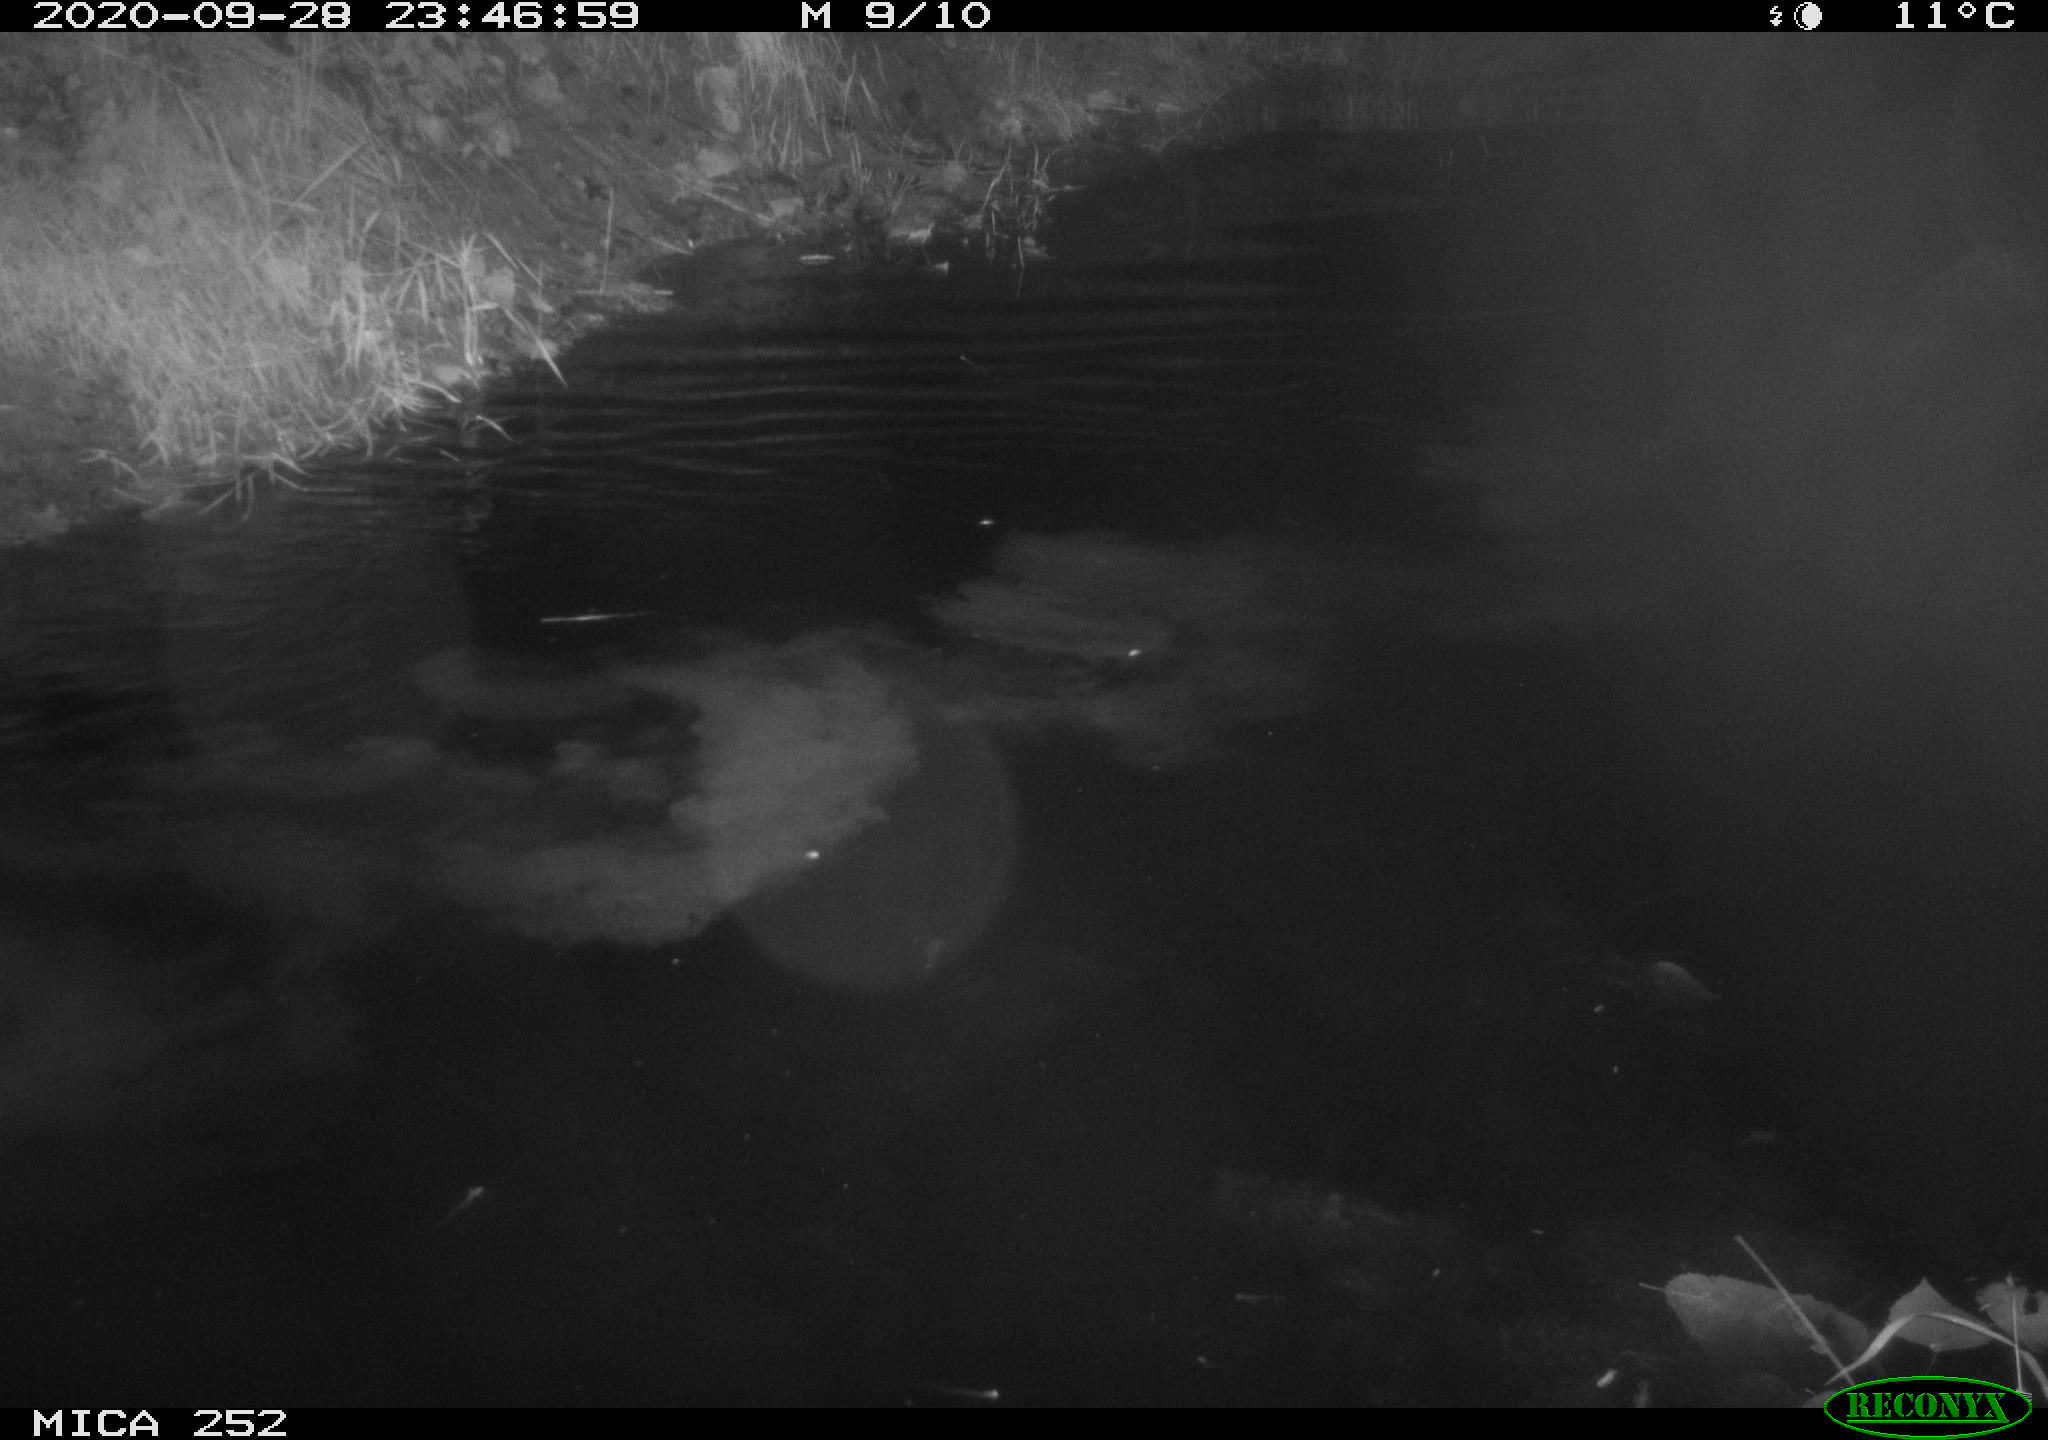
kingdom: Animalia
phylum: Chordata
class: Mammalia
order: Rodentia
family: Castoridae
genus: Castor
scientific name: Castor fiber
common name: Eurasian beaver
